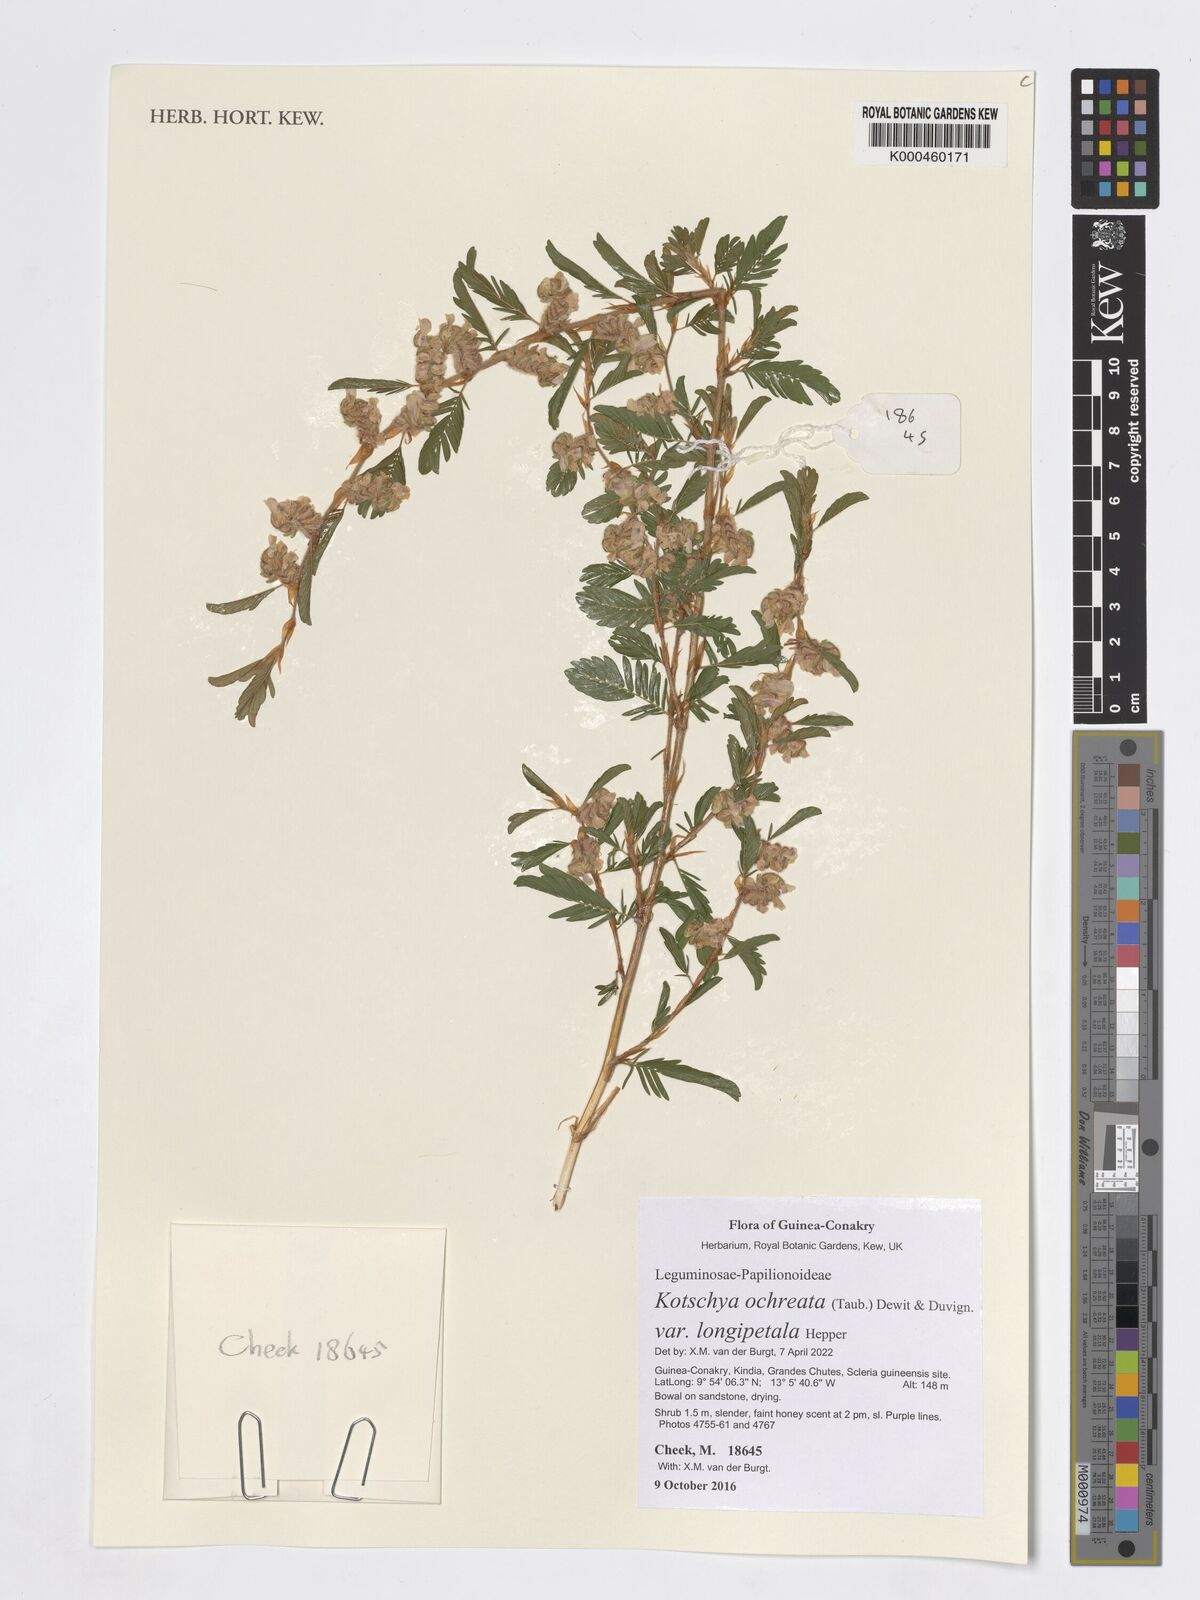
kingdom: Plantae
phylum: Tracheophyta
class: Magnoliopsida
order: Fabales
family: Fabaceae
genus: Kotschya
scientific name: Kotschya ochreata
